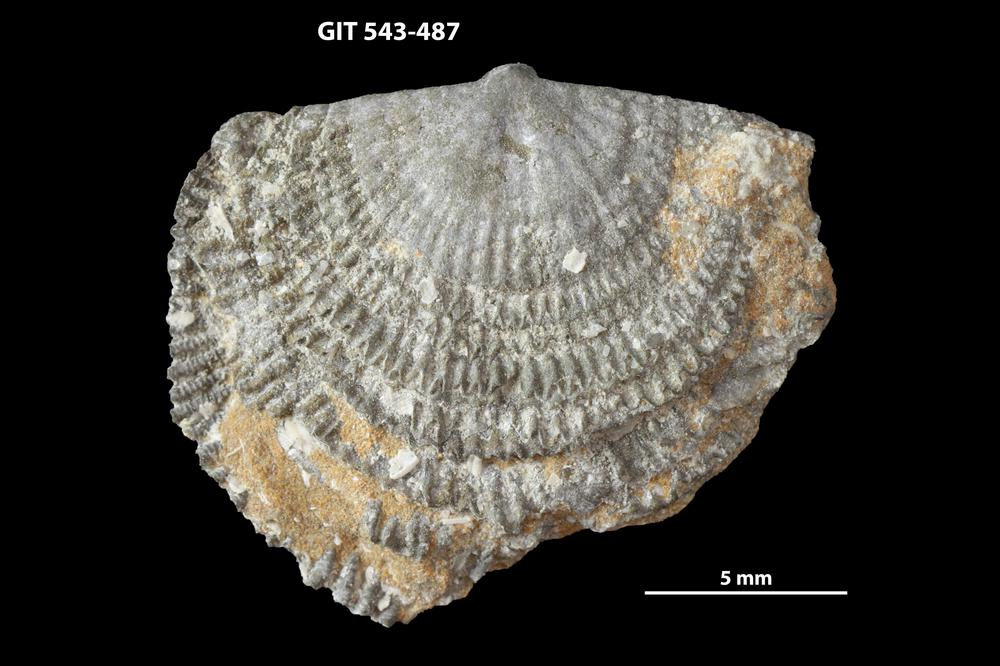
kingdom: Animalia
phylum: Brachiopoda
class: Rhynchonellata
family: Clitambonitidae
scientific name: Clitambonitidae
